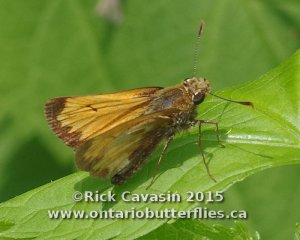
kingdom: Animalia
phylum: Arthropoda
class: Insecta
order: Lepidoptera
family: Hesperiidae
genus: Lon
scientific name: Lon hobomok
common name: Hobomok Skipper
